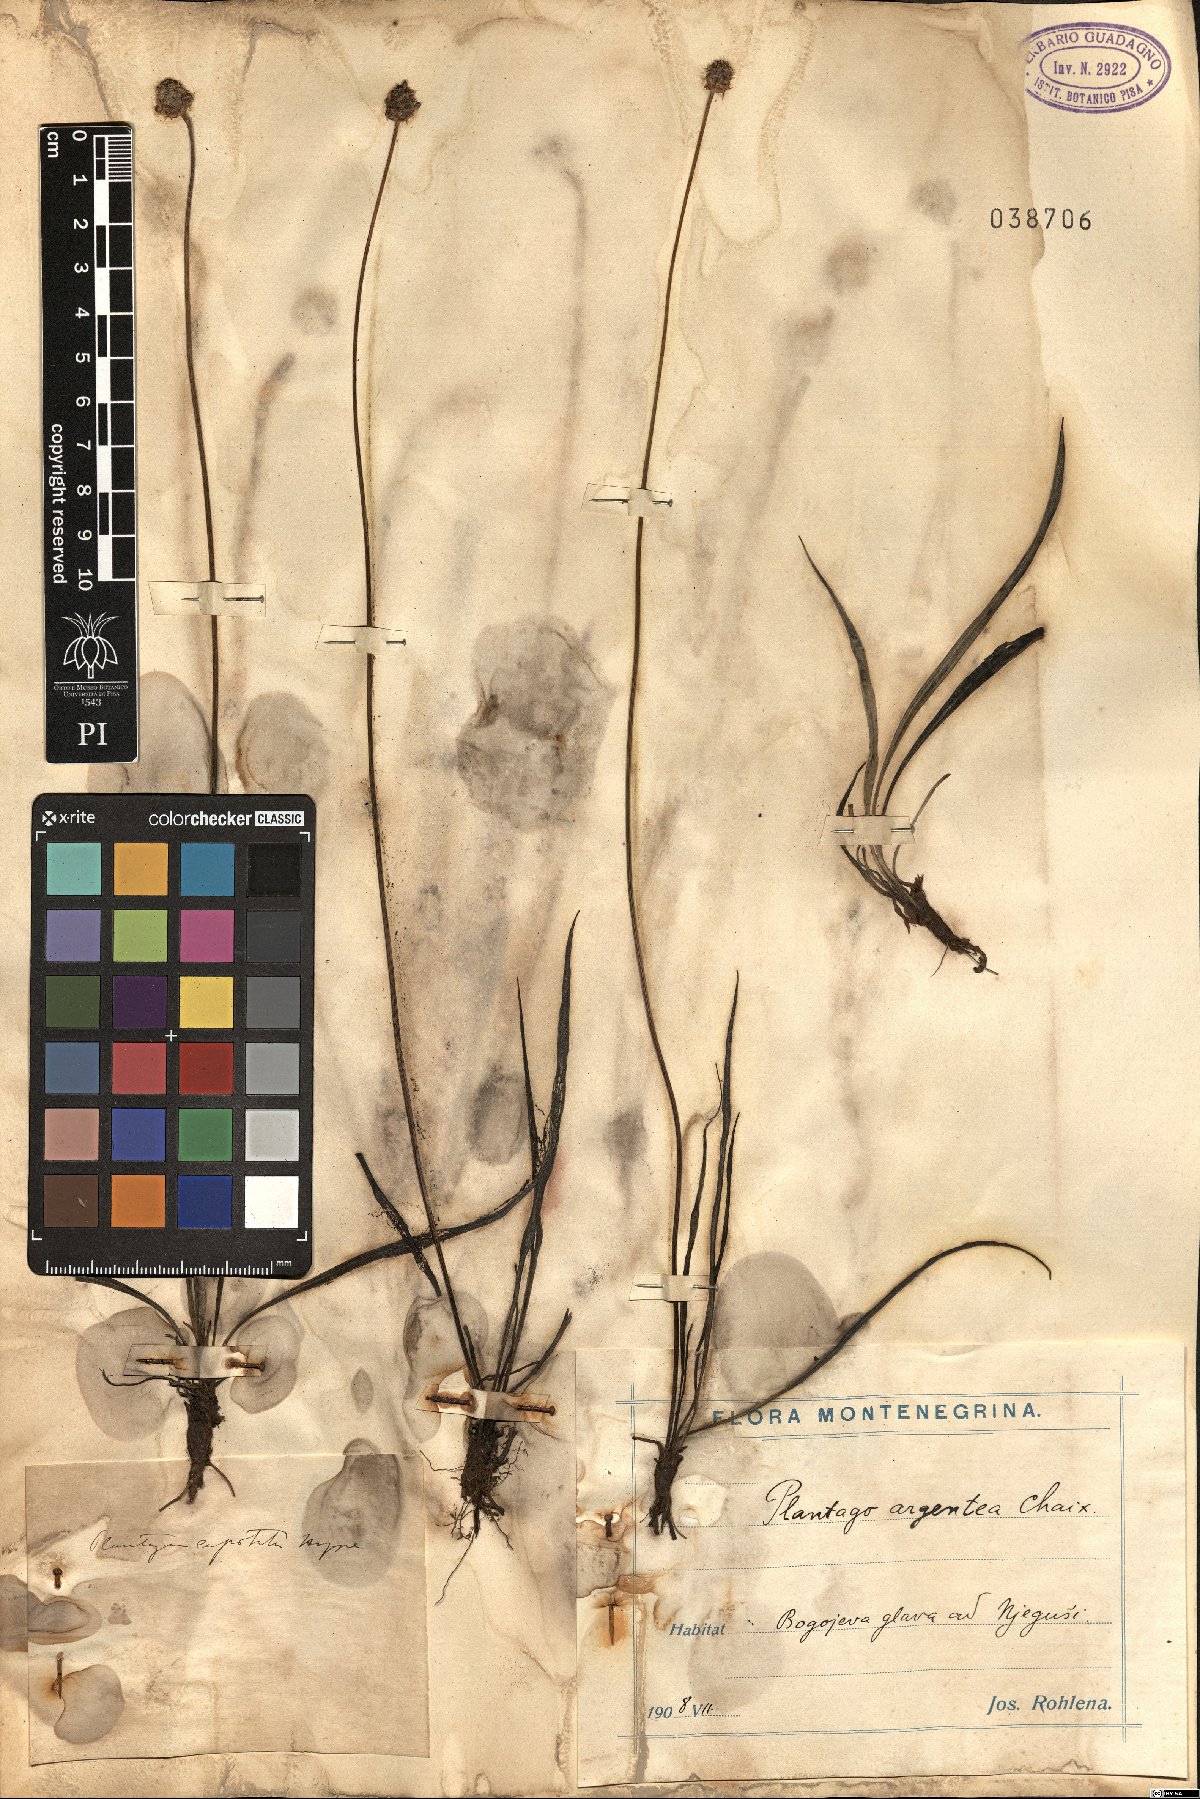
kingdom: Plantae
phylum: Tracheophyta
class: Magnoliopsida
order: Lamiales
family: Plantaginaceae
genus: Plantago
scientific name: Plantago argentea
